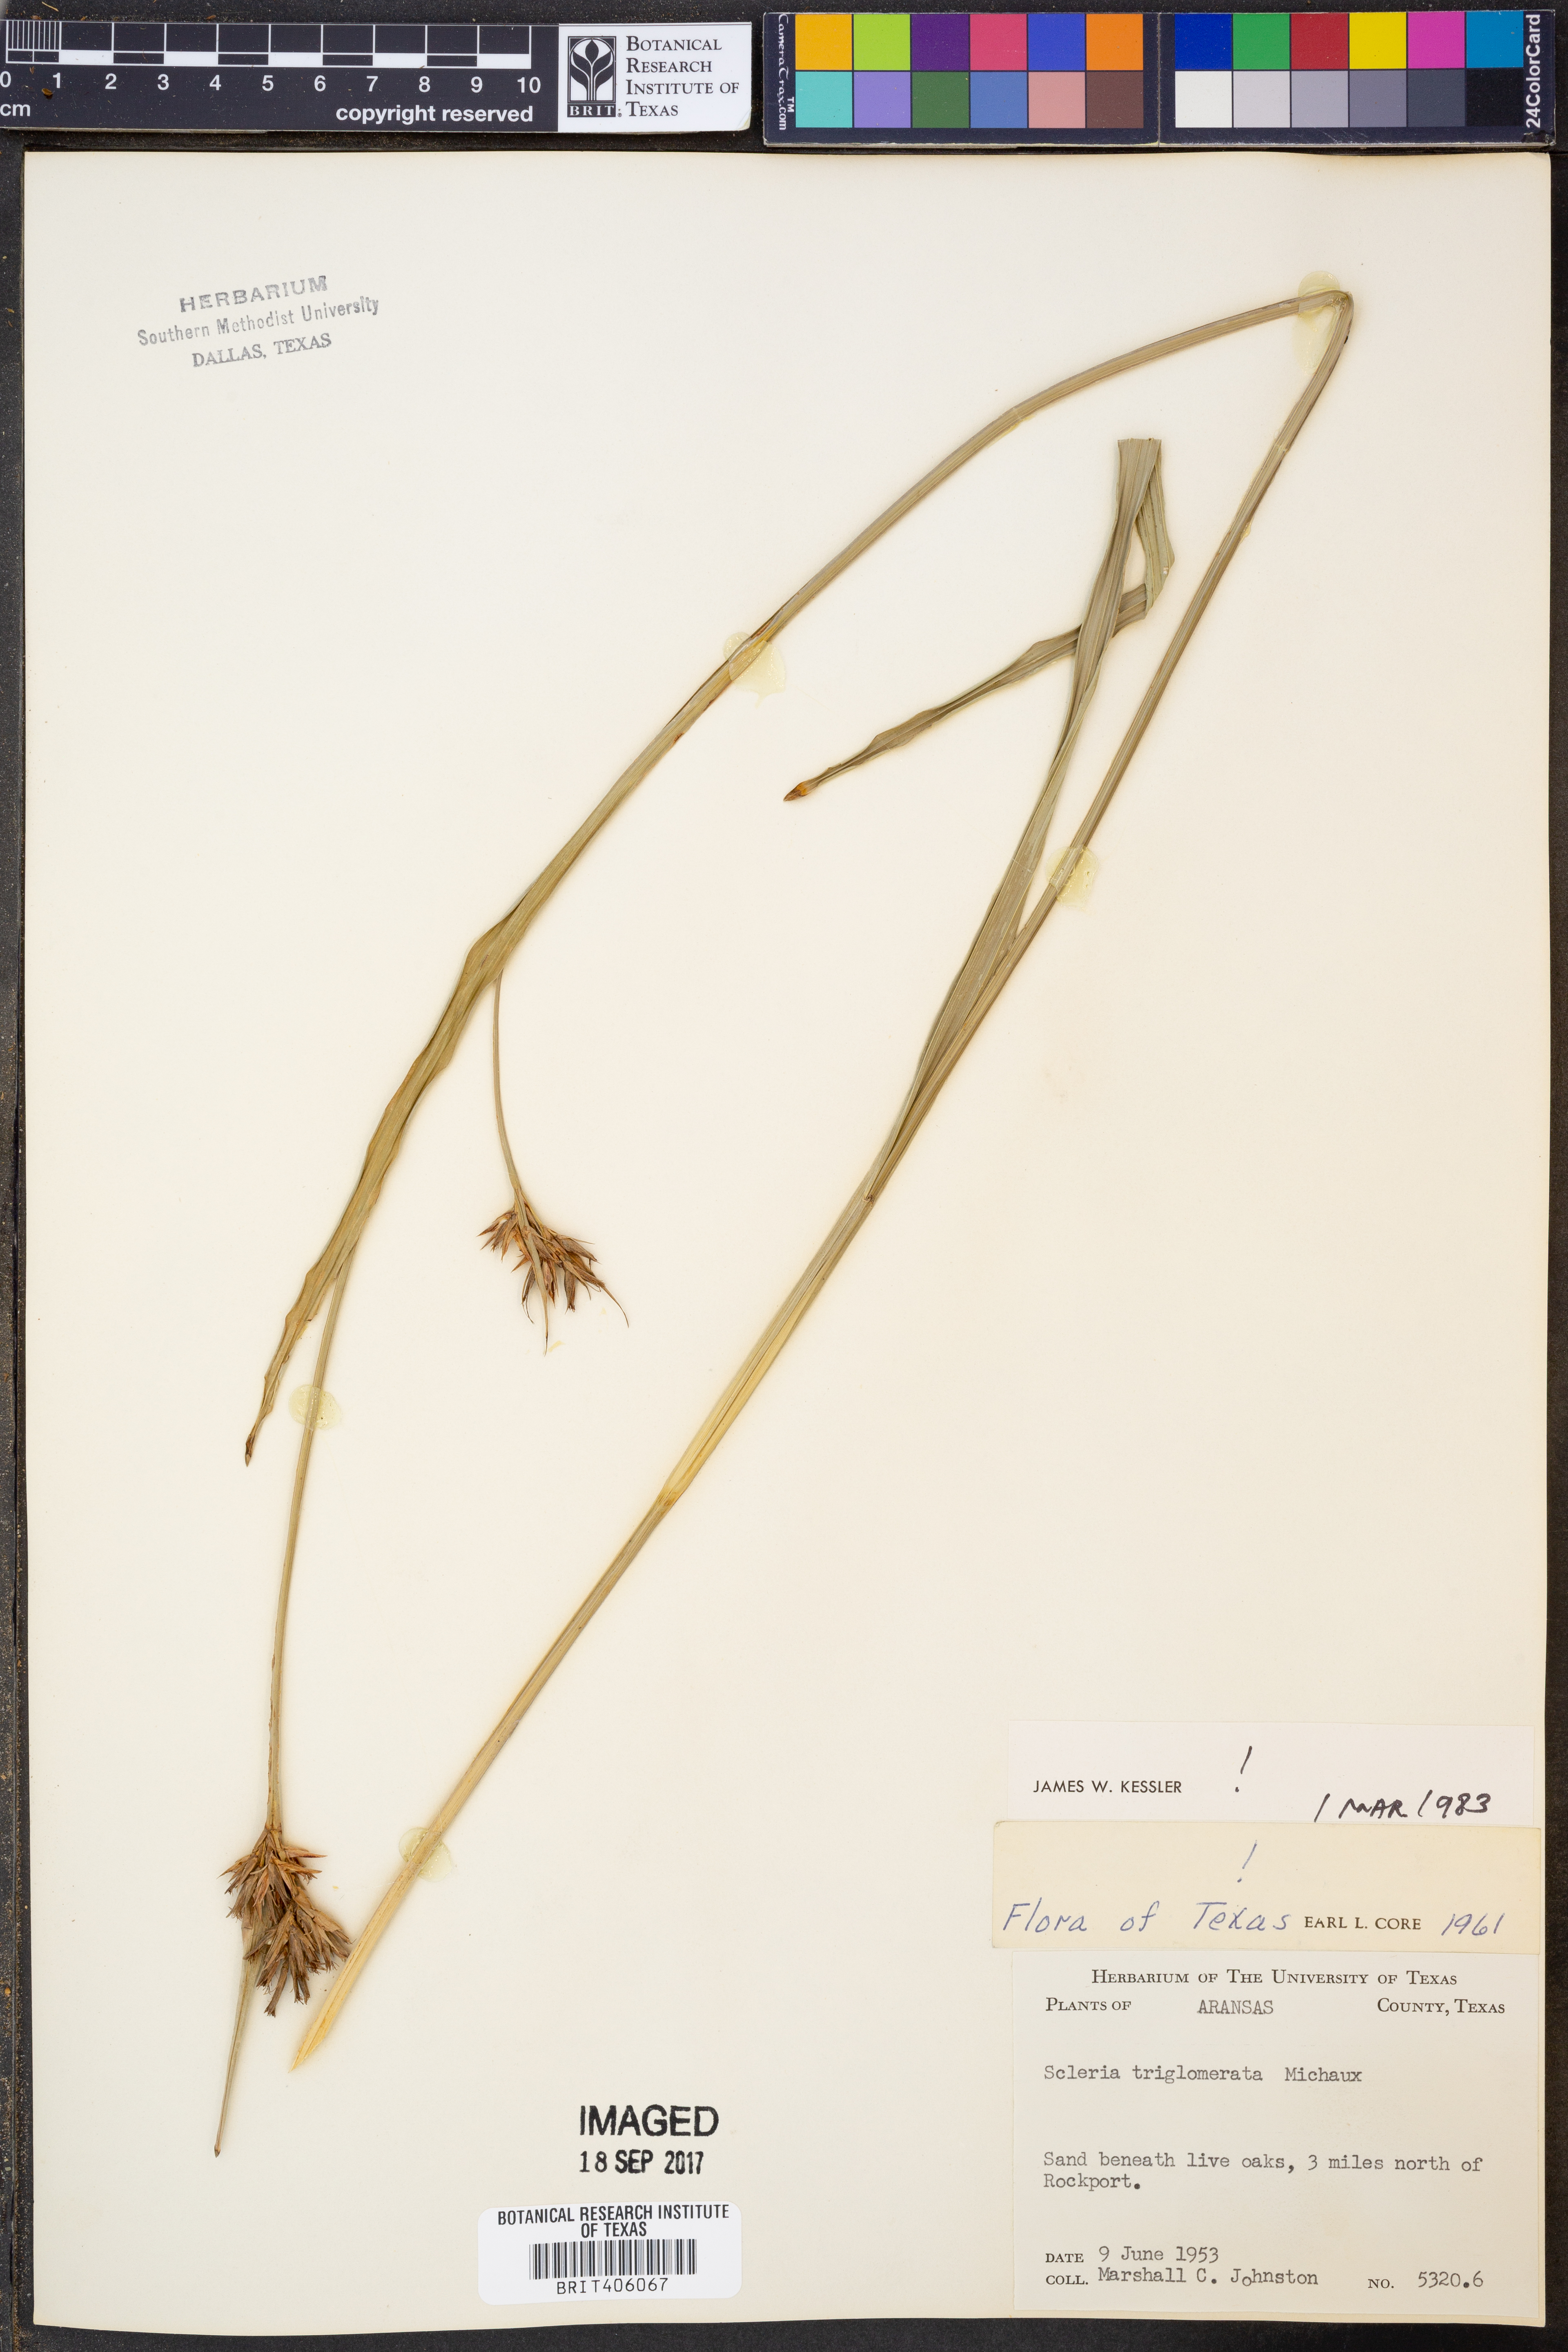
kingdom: Plantae
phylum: Tracheophyta
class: Liliopsida
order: Poales
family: Cyperaceae
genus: Scleria
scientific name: Scleria triglomerata
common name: Whip nutrush
